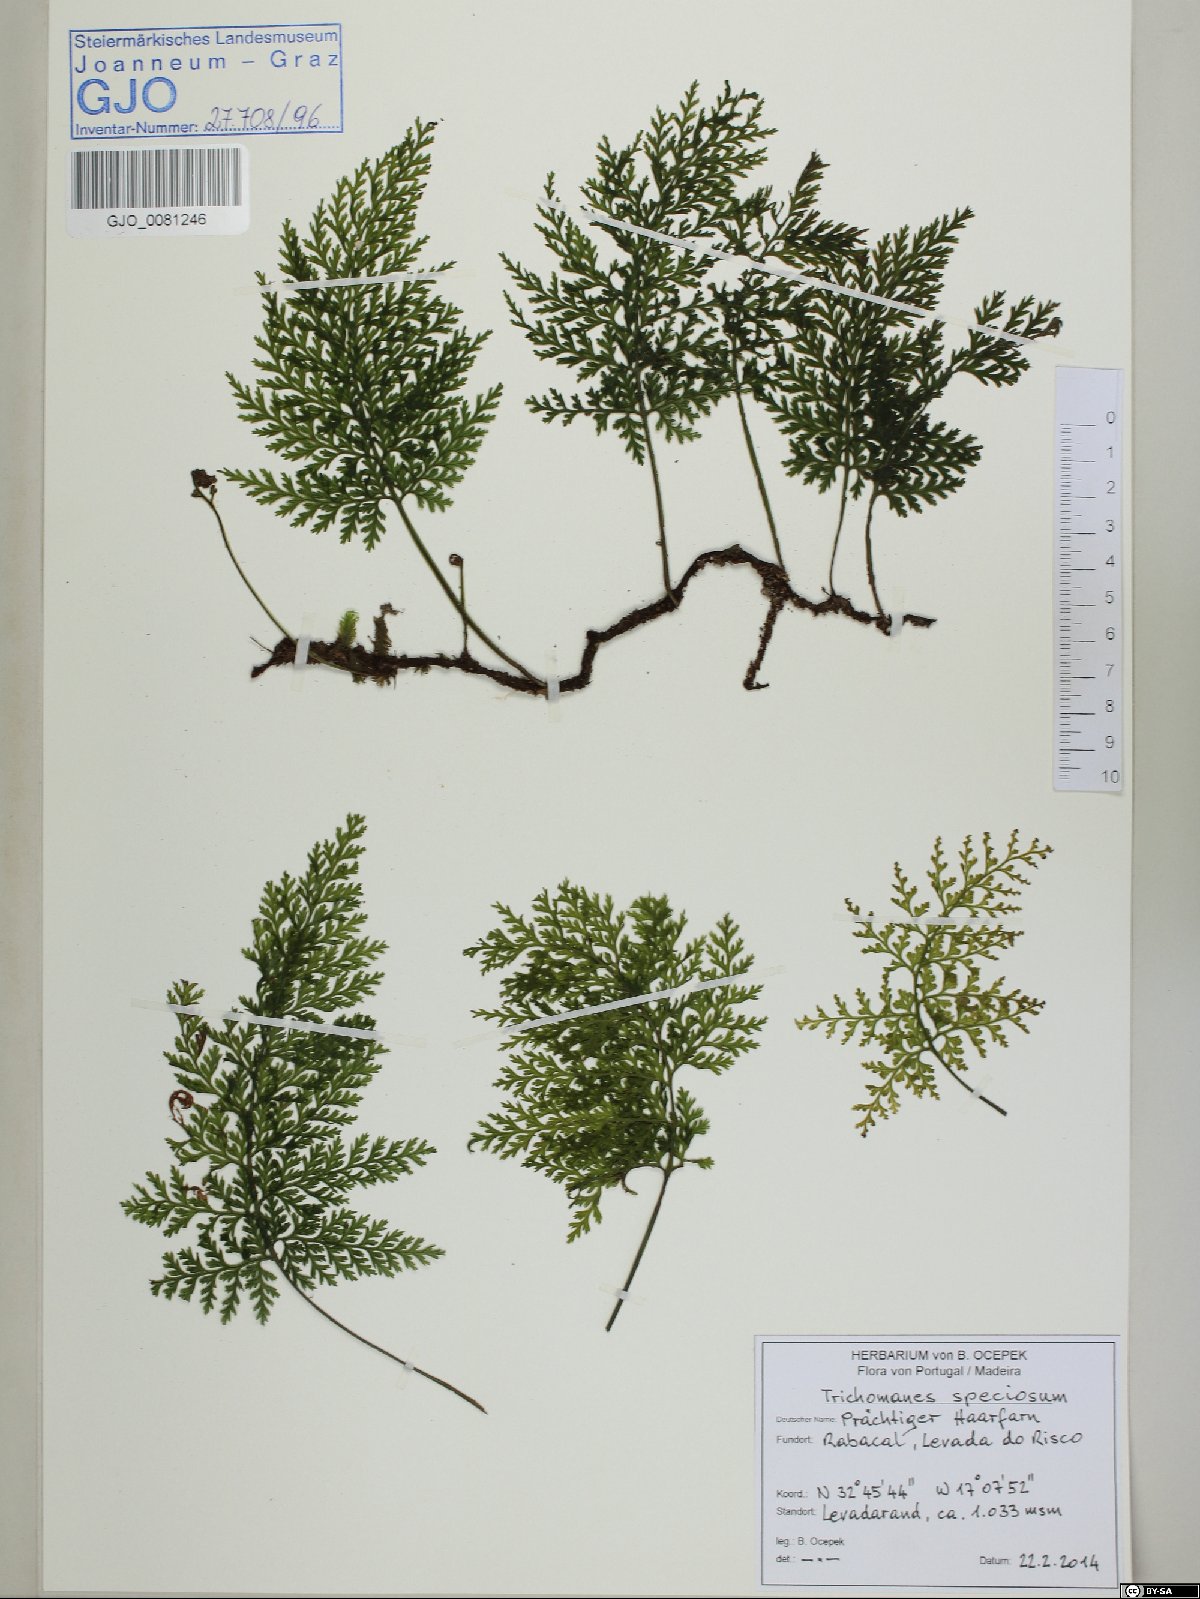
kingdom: Plantae
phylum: Tracheophyta
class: Polypodiopsida
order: Hymenophyllales
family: Hymenophyllaceae
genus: Vandenboschia
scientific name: Vandenboschia speciosa
